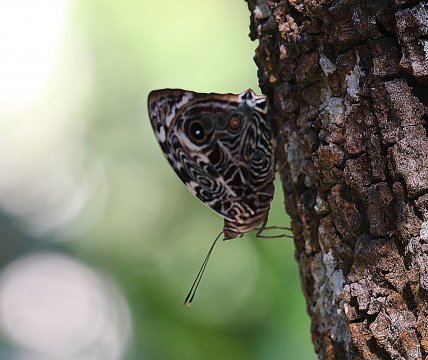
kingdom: Animalia
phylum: Arthropoda
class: Insecta
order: Lepidoptera
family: Nymphalidae
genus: Smyrna
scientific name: Smyrna blomfildia
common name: Blomfild's Beauty
